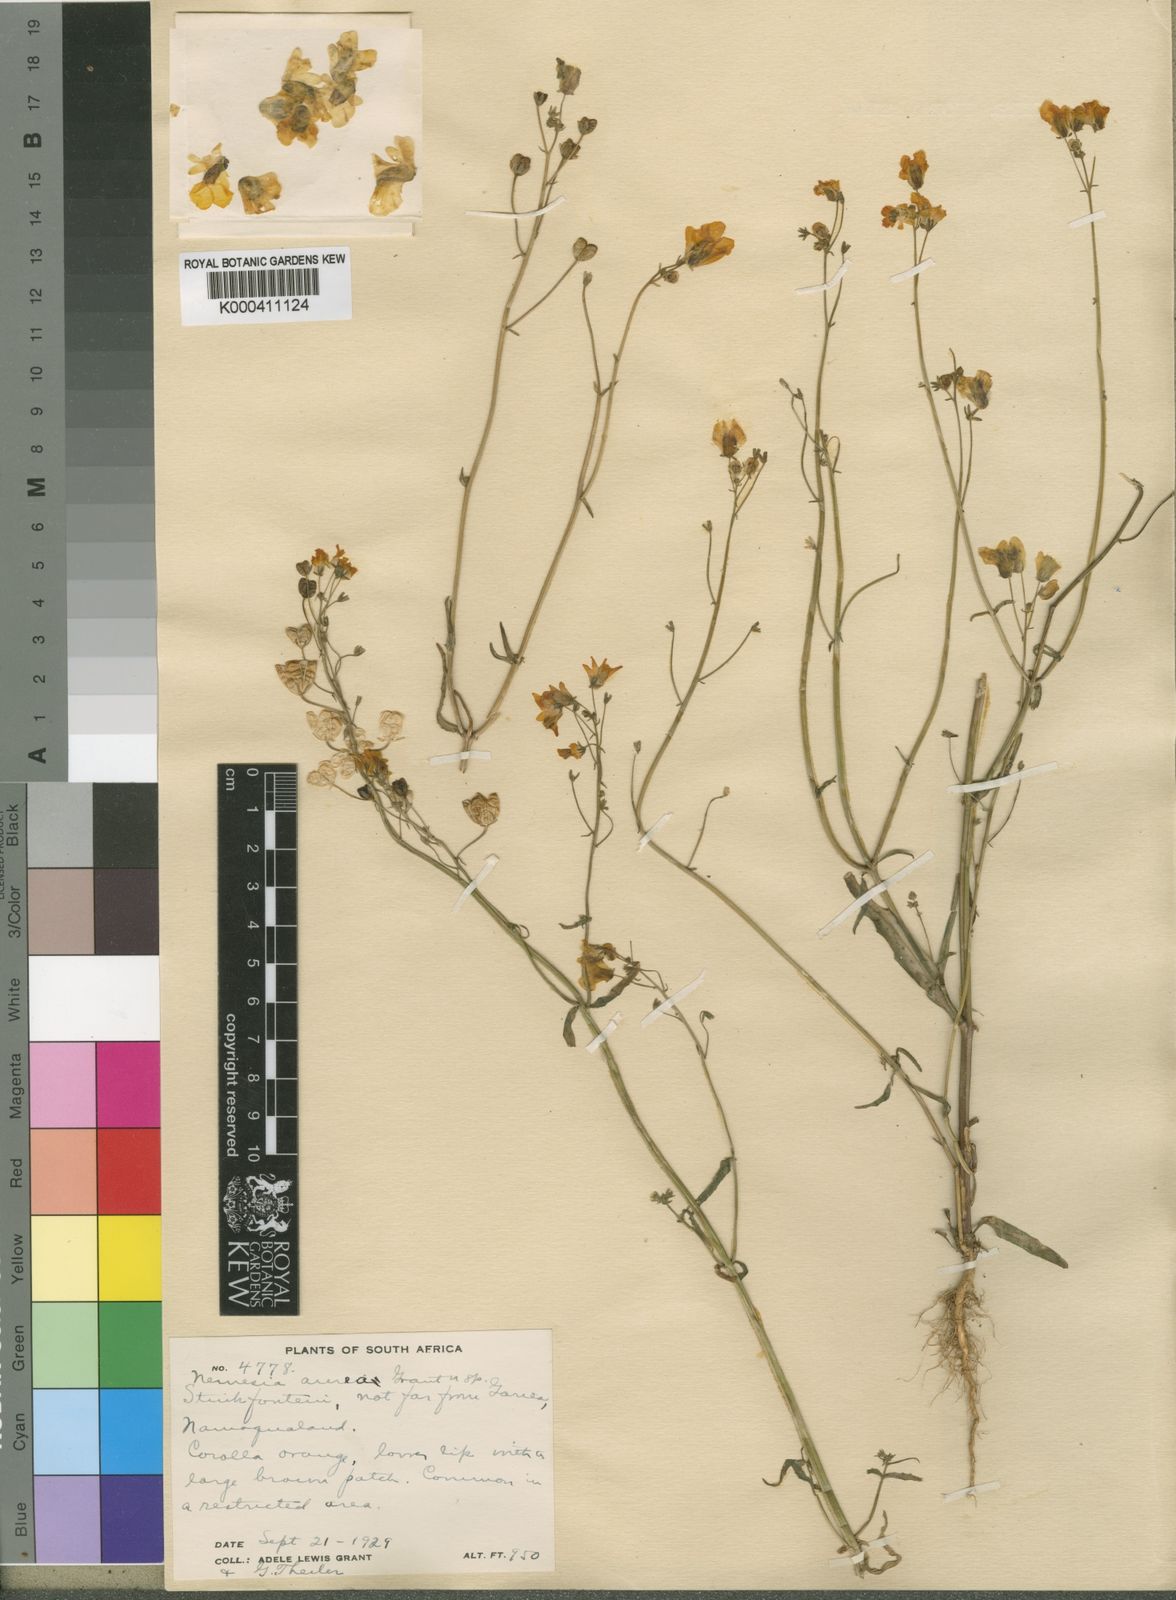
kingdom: Plantae
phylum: Tracheophyta
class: Magnoliopsida
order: Lamiales
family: Scrophulariaceae
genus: Nemesia
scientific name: Nemesia
